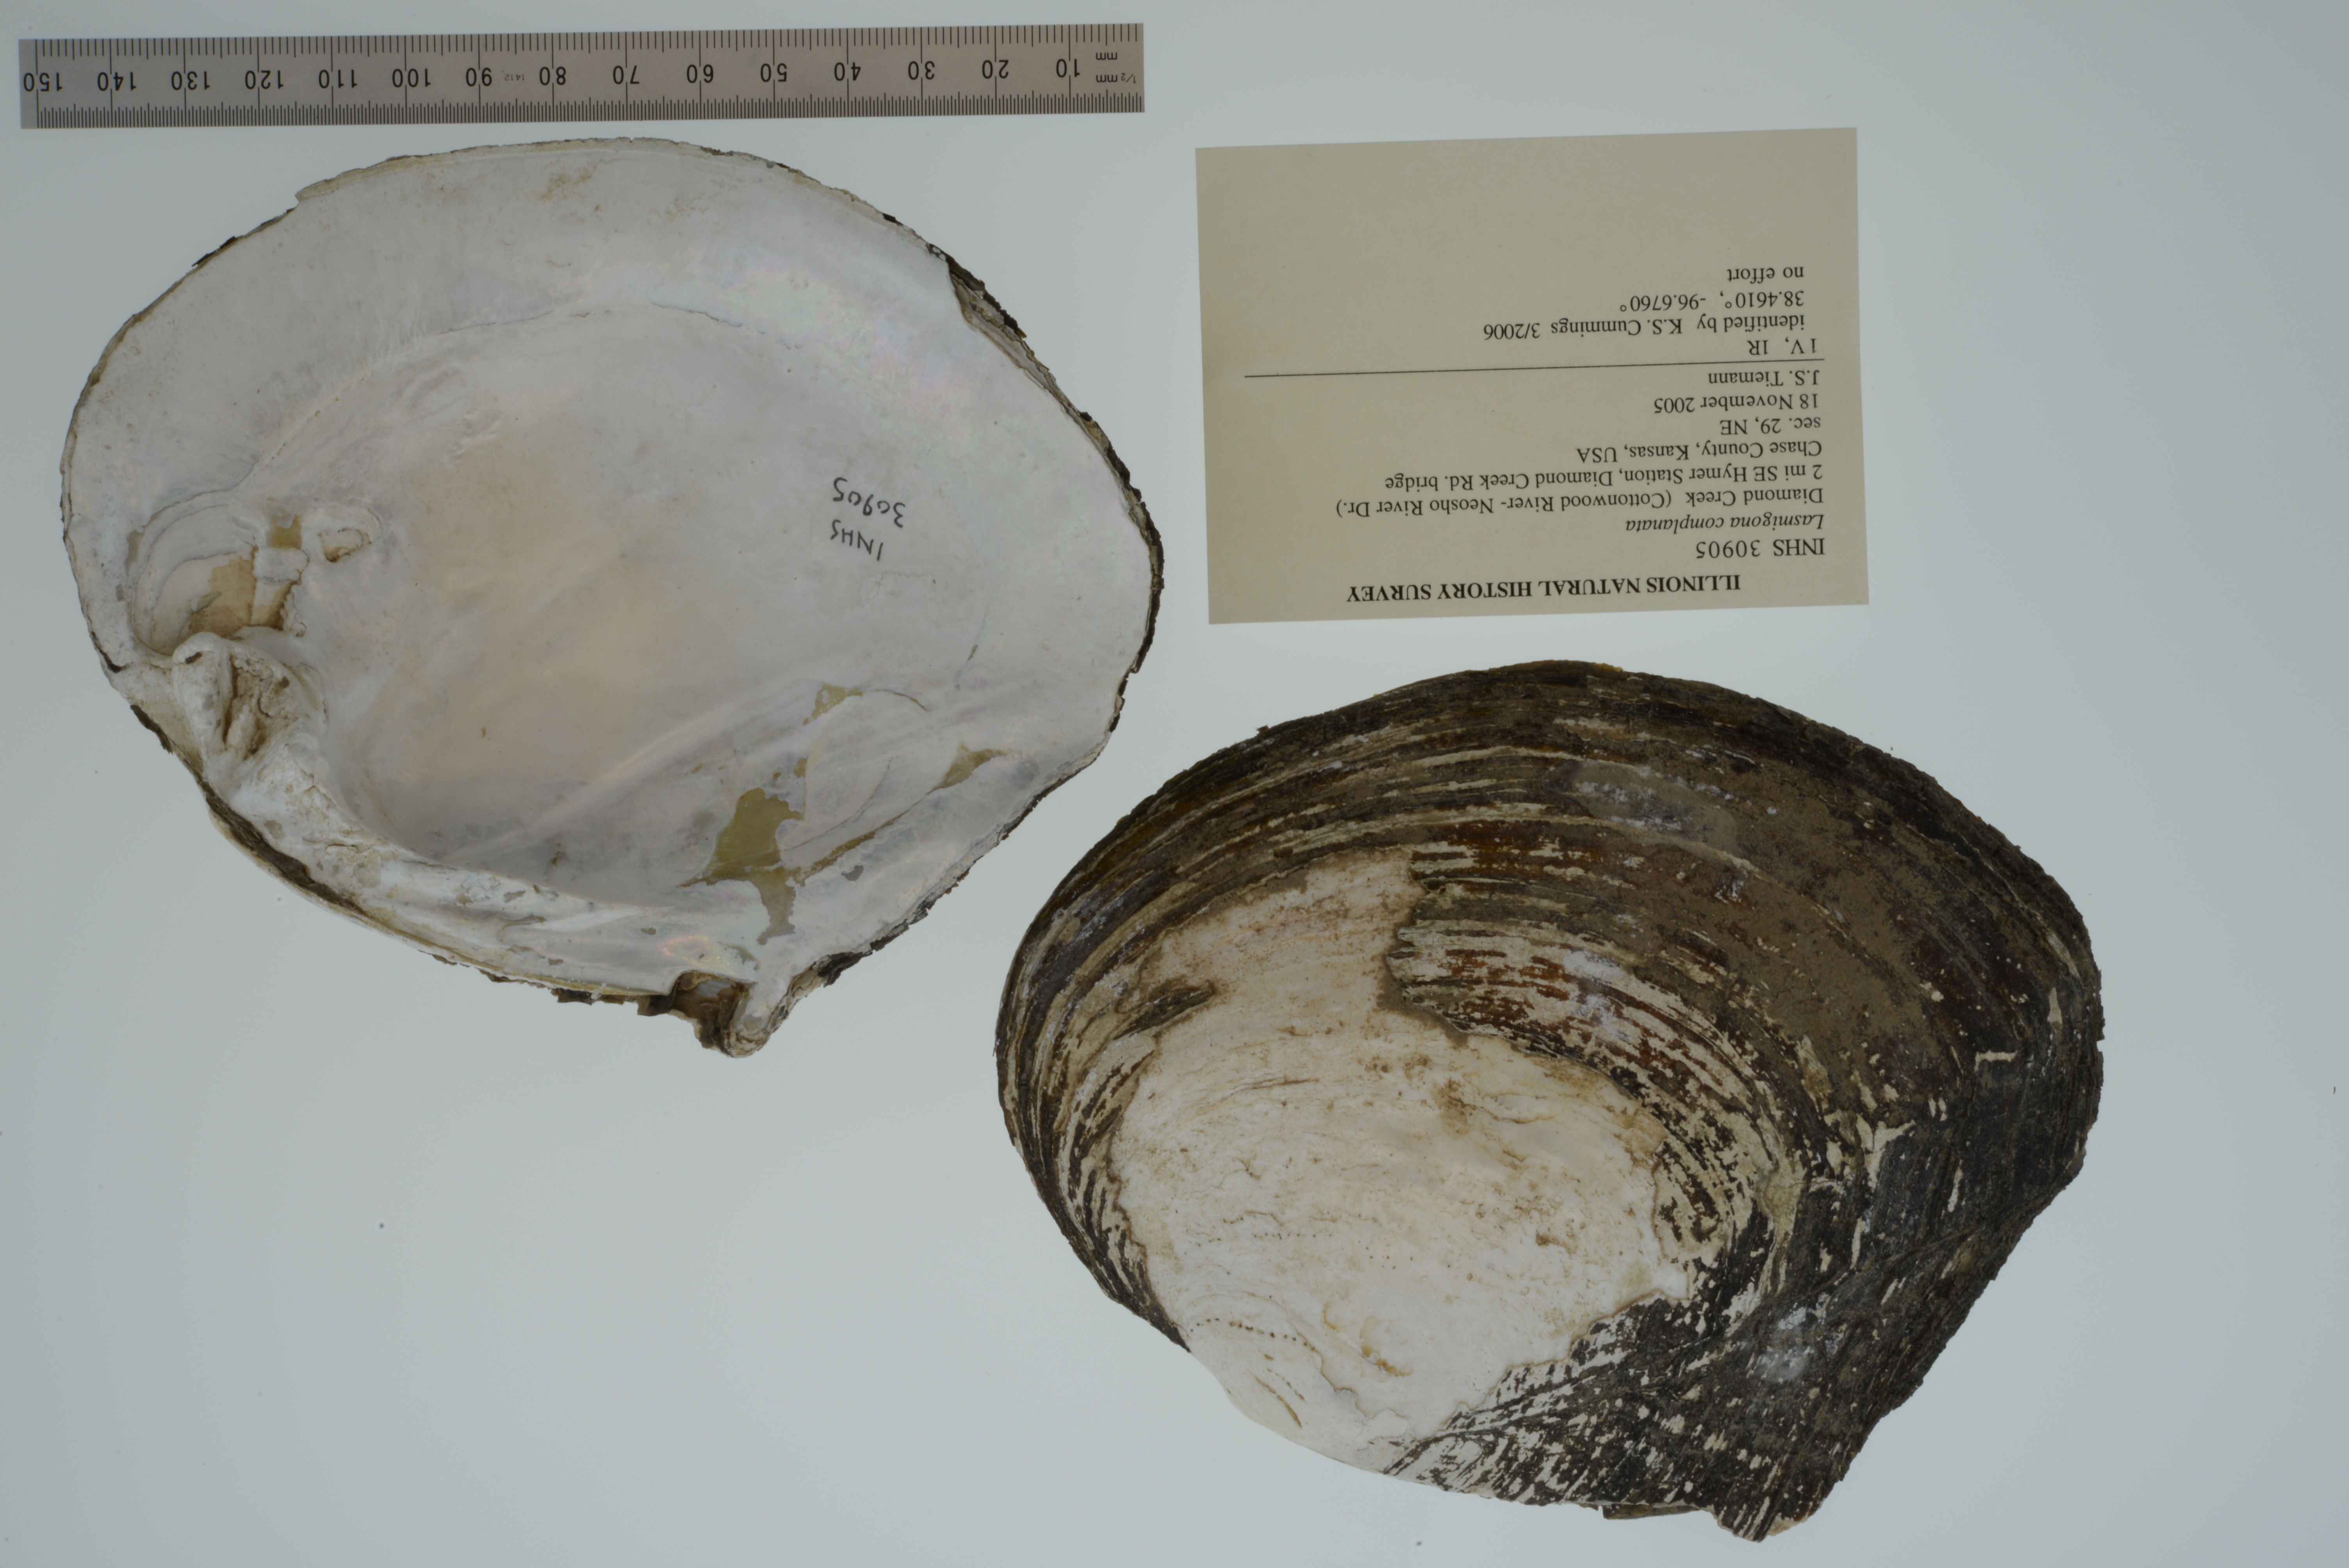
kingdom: Animalia
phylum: Mollusca
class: Bivalvia
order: Unionida
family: Unionidae
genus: Lasmigona
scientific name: Lasmigona complanata
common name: White heelsplitter
